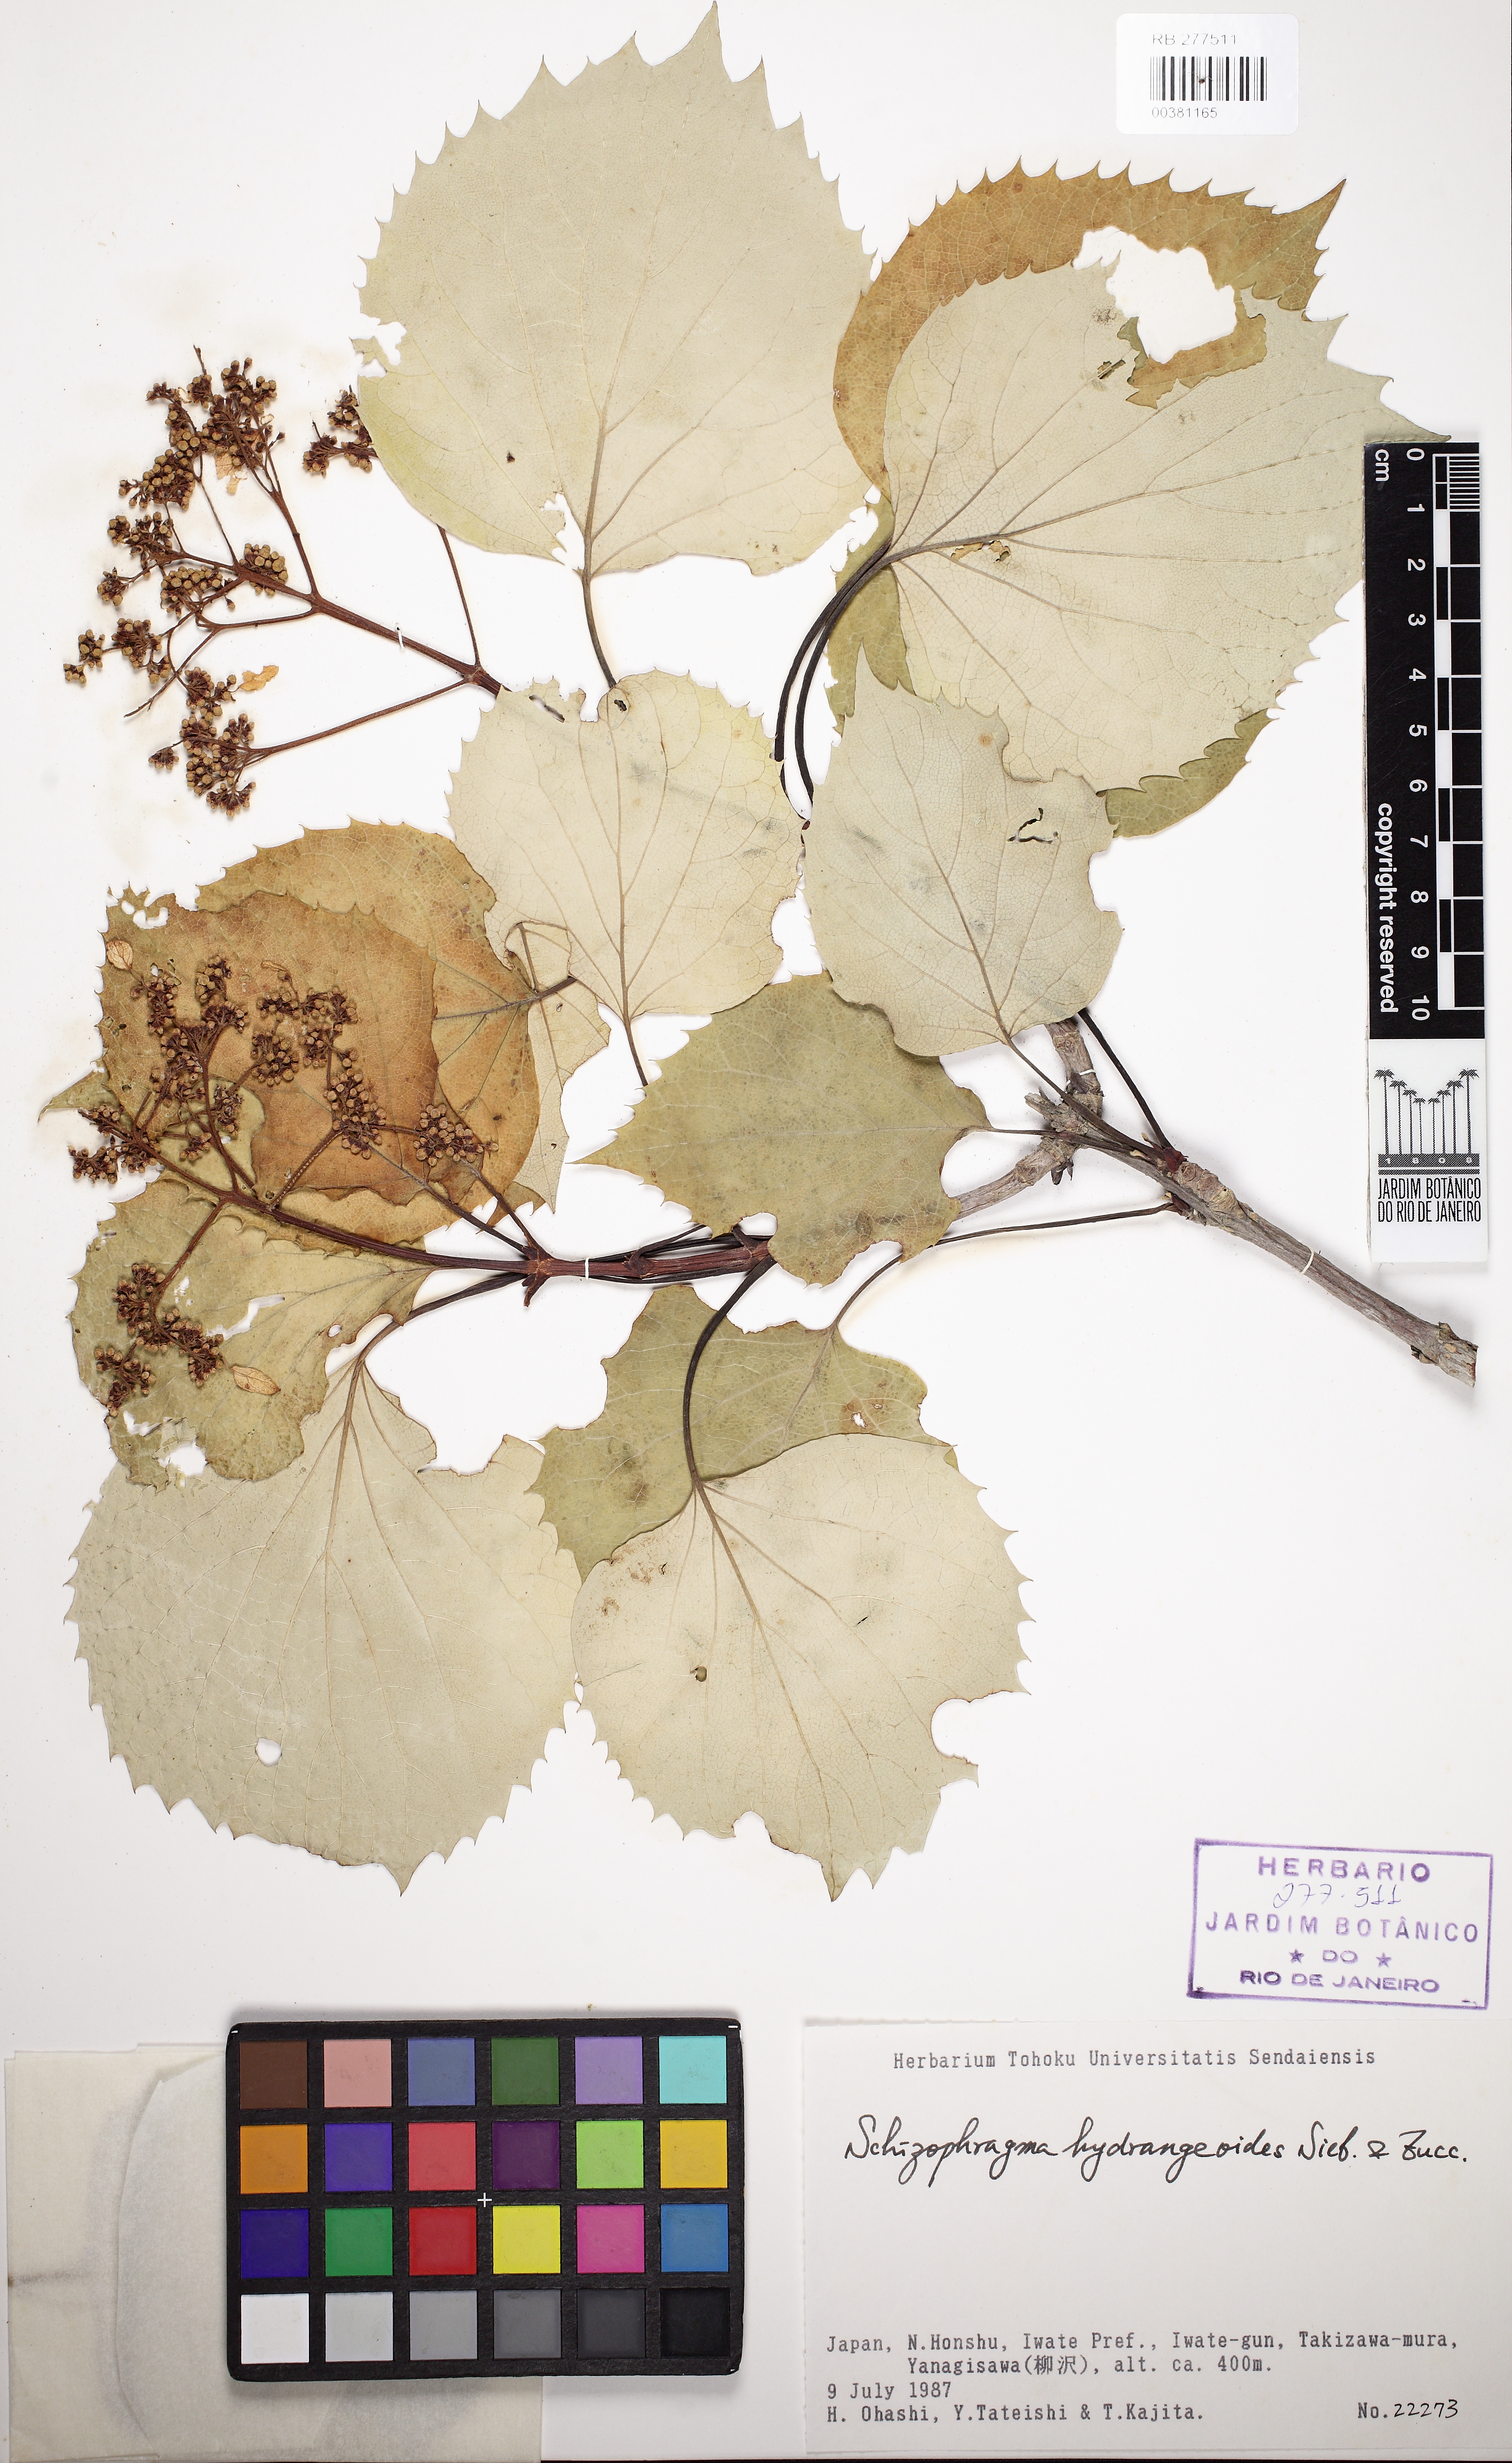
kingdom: Plantae
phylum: Tracheophyta
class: Magnoliopsida
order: Cornales
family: Hydrangeaceae
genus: Hydrangea
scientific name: Hydrangea hydrangeoides
